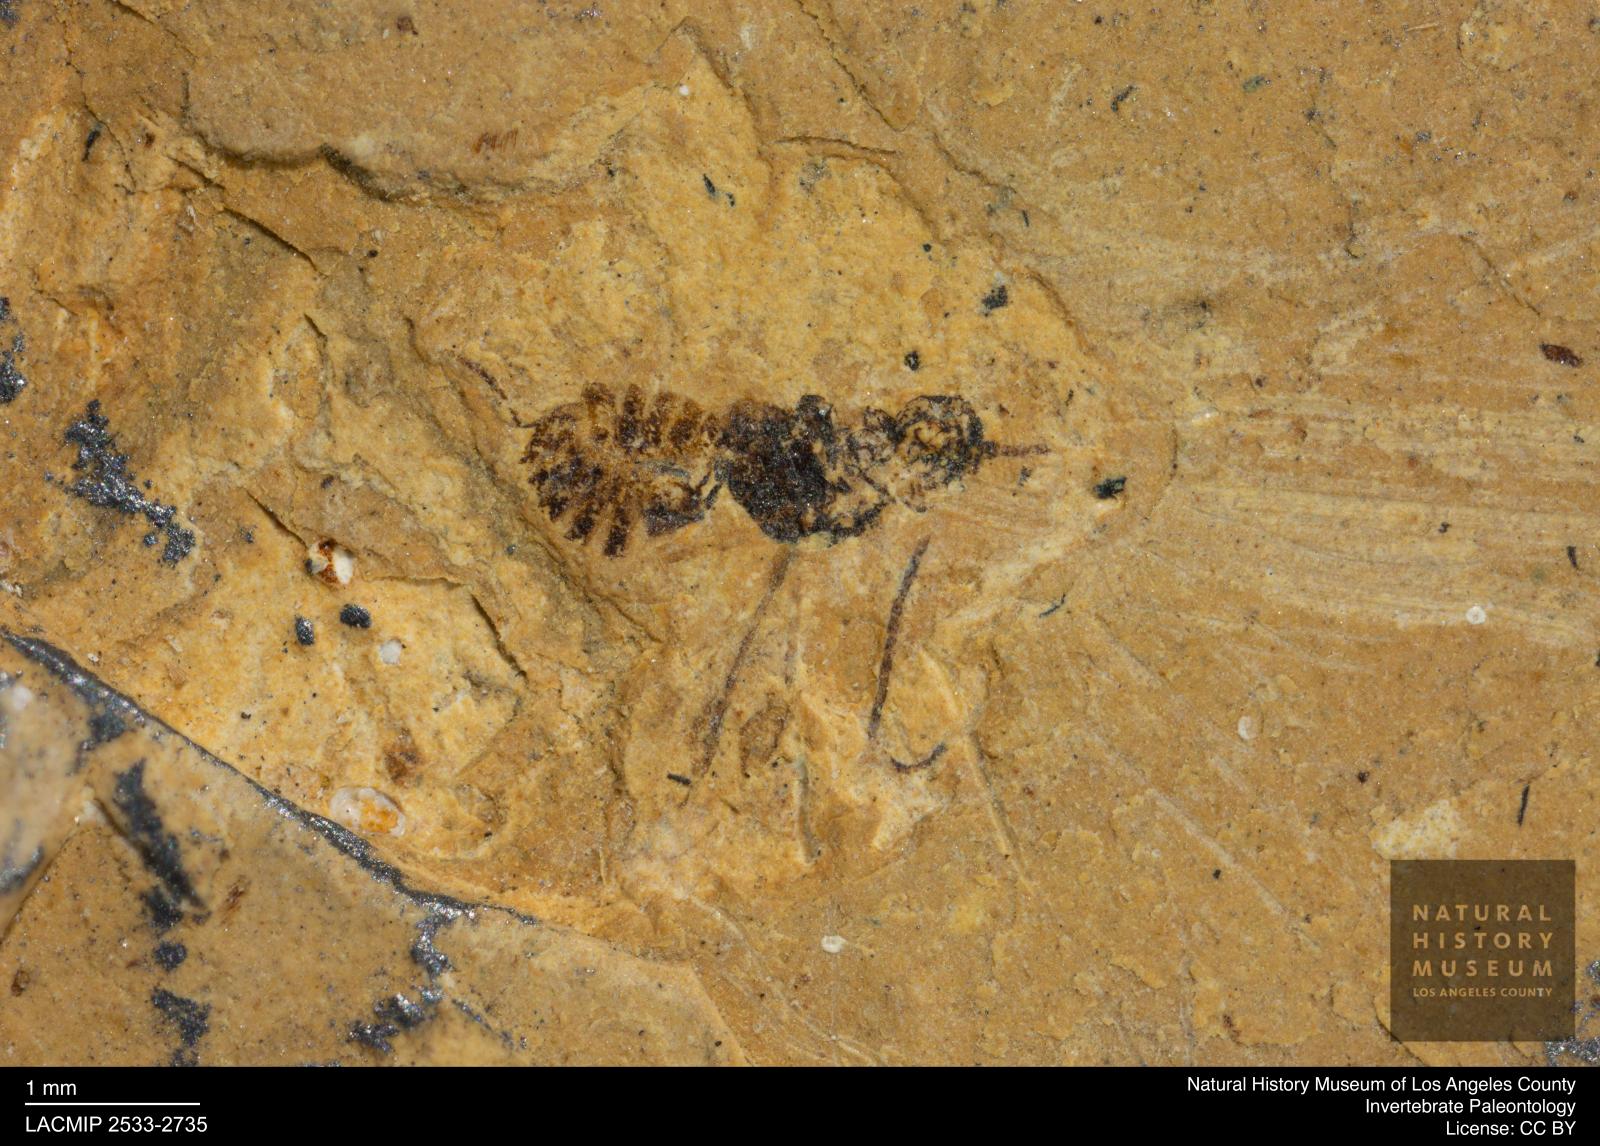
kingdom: Animalia
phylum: Arthropoda
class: Insecta
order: Hymenoptera
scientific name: Hymenoptera
